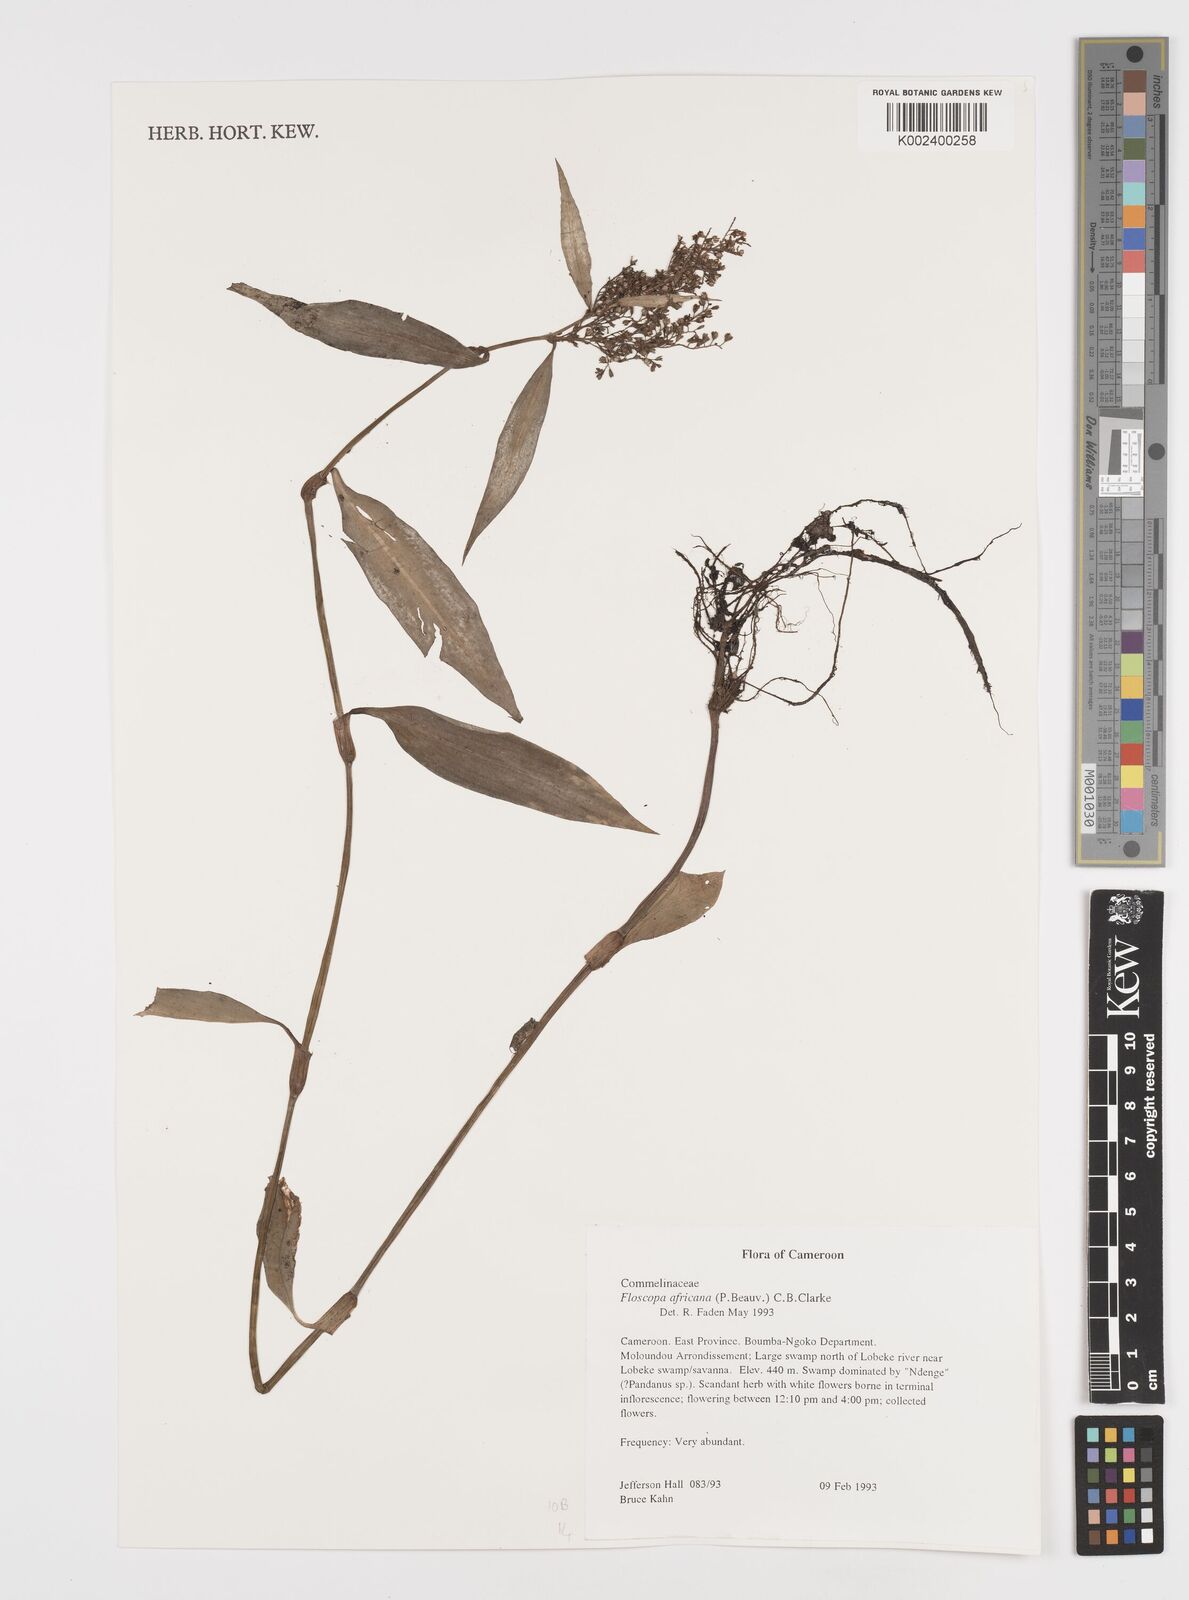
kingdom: Plantae
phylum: Tracheophyta
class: Liliopsida
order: Commelinales
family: Commelinaceae
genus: Floscopa
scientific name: Floscopa africana
